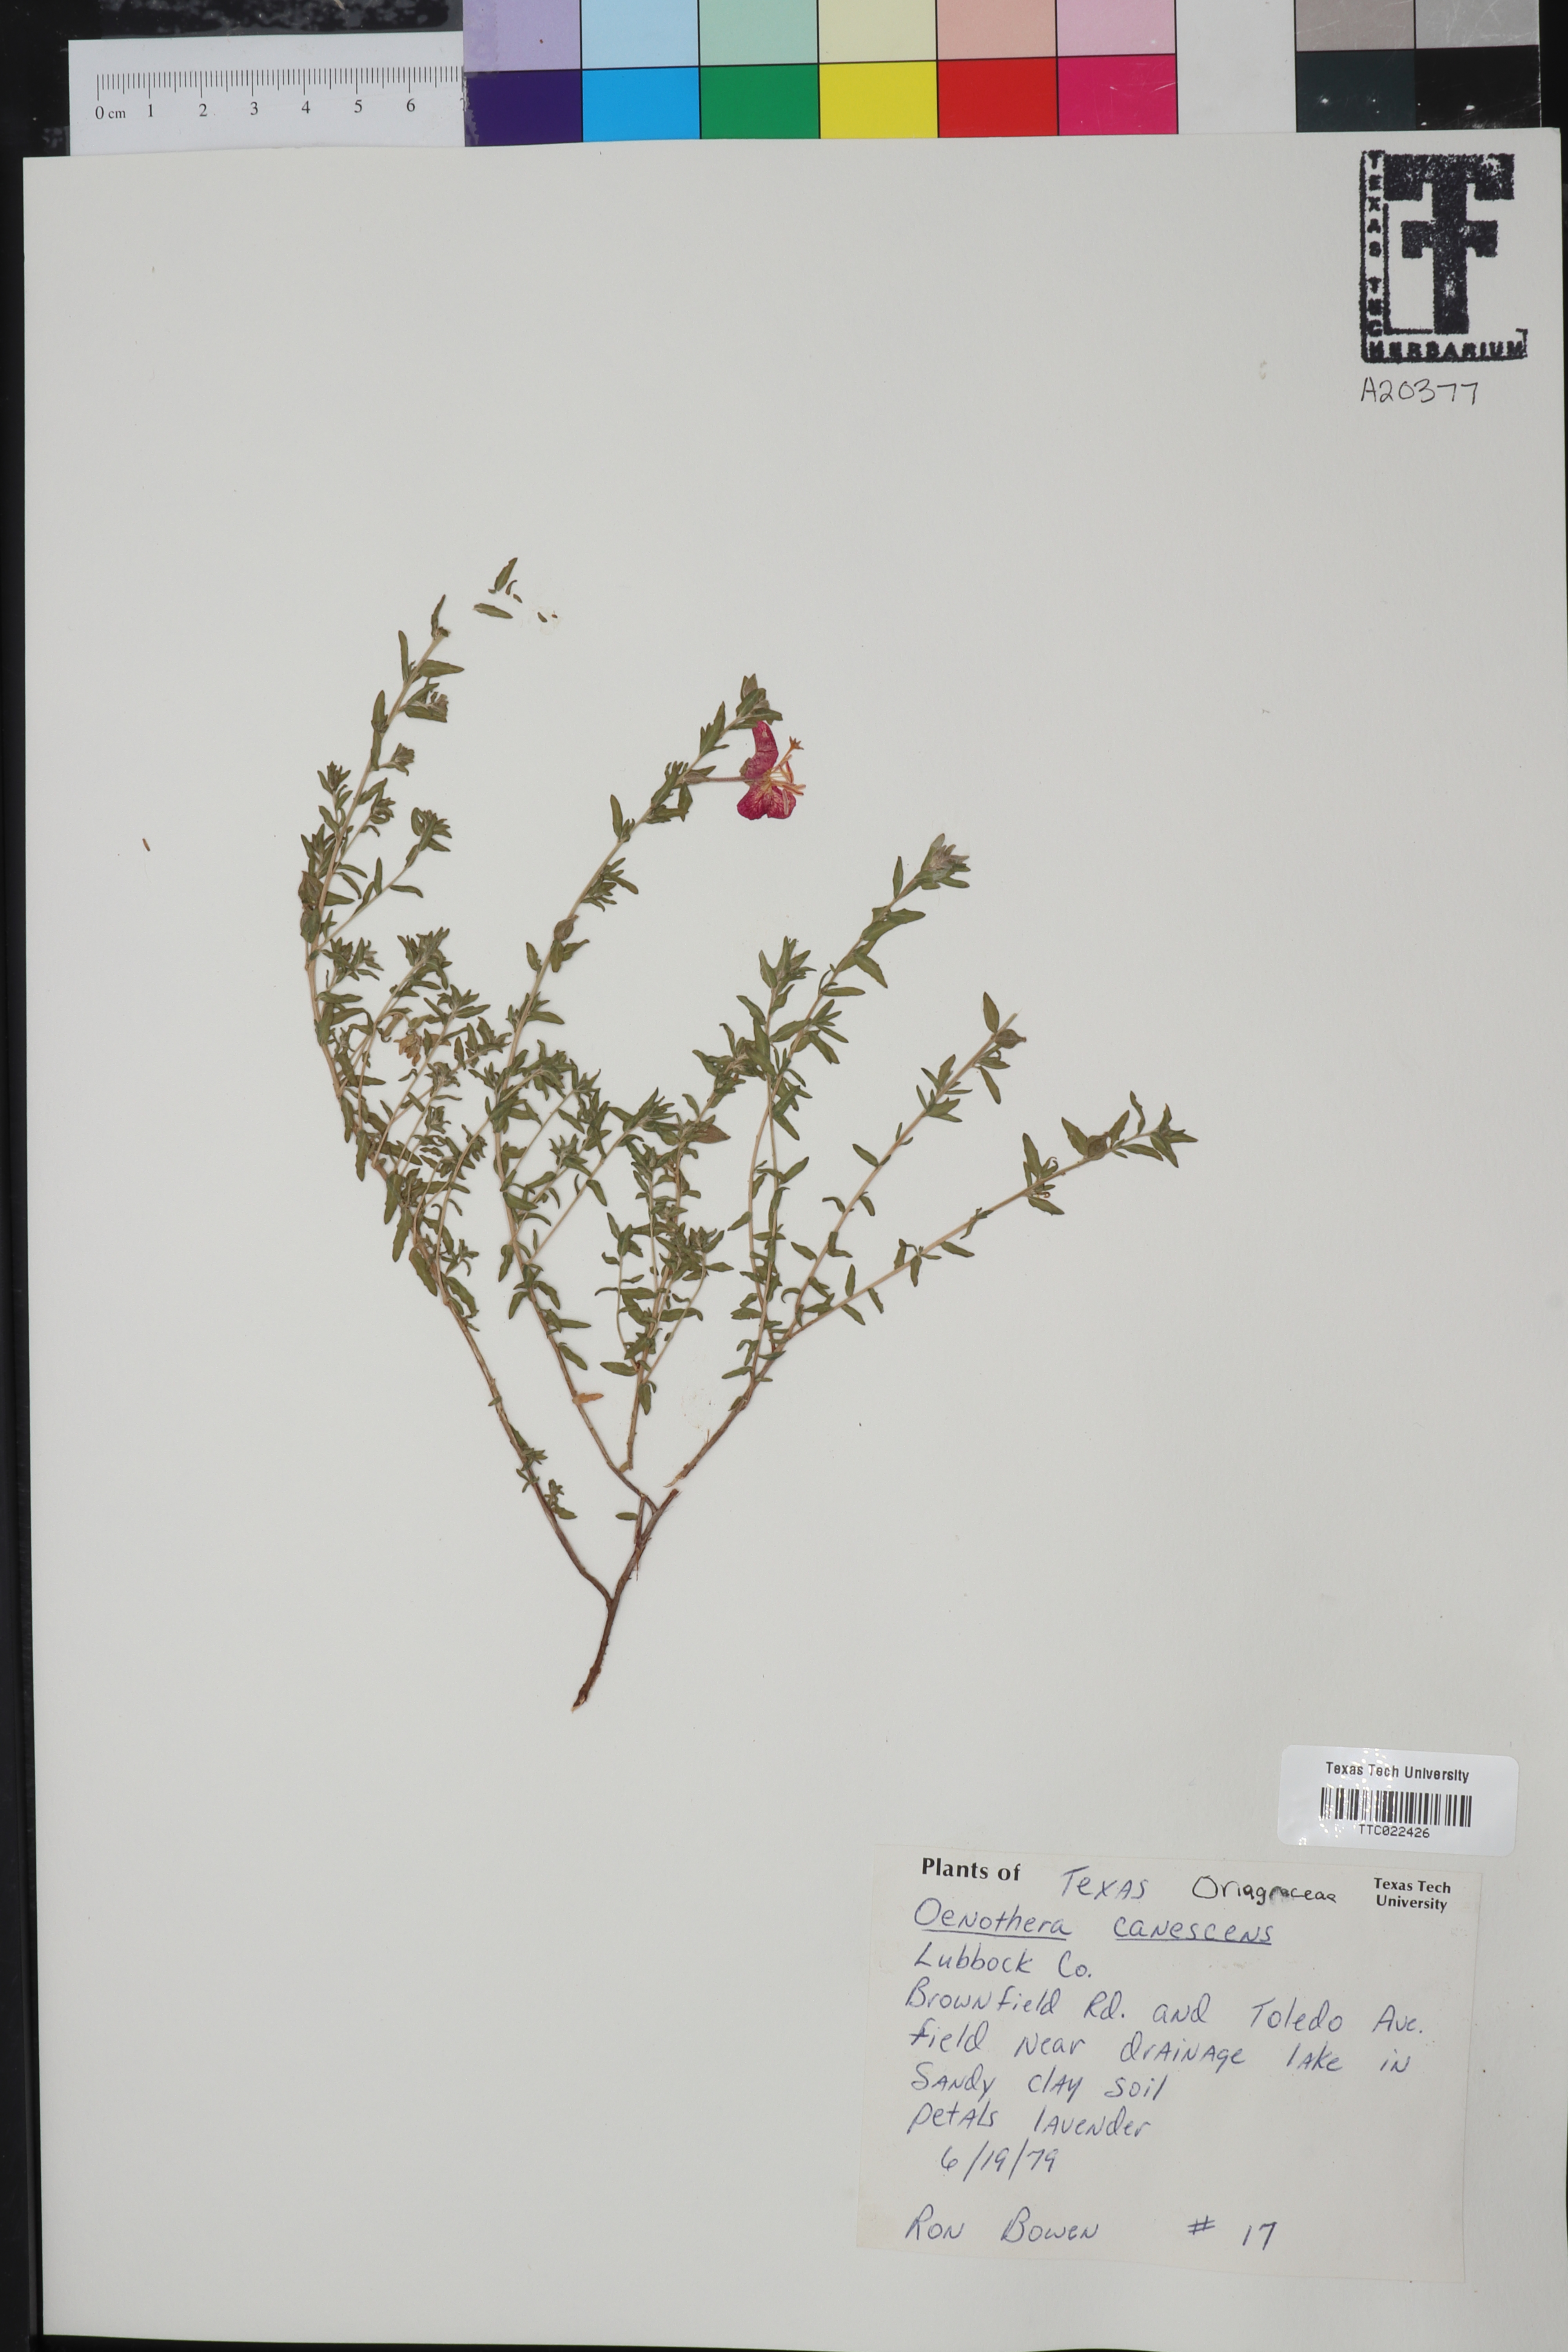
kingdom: Plantae
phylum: Tracheophyta
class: Magnoliopsida
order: Myrtales
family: Onagraceae
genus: Oenothera
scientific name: Oenothera canescens
